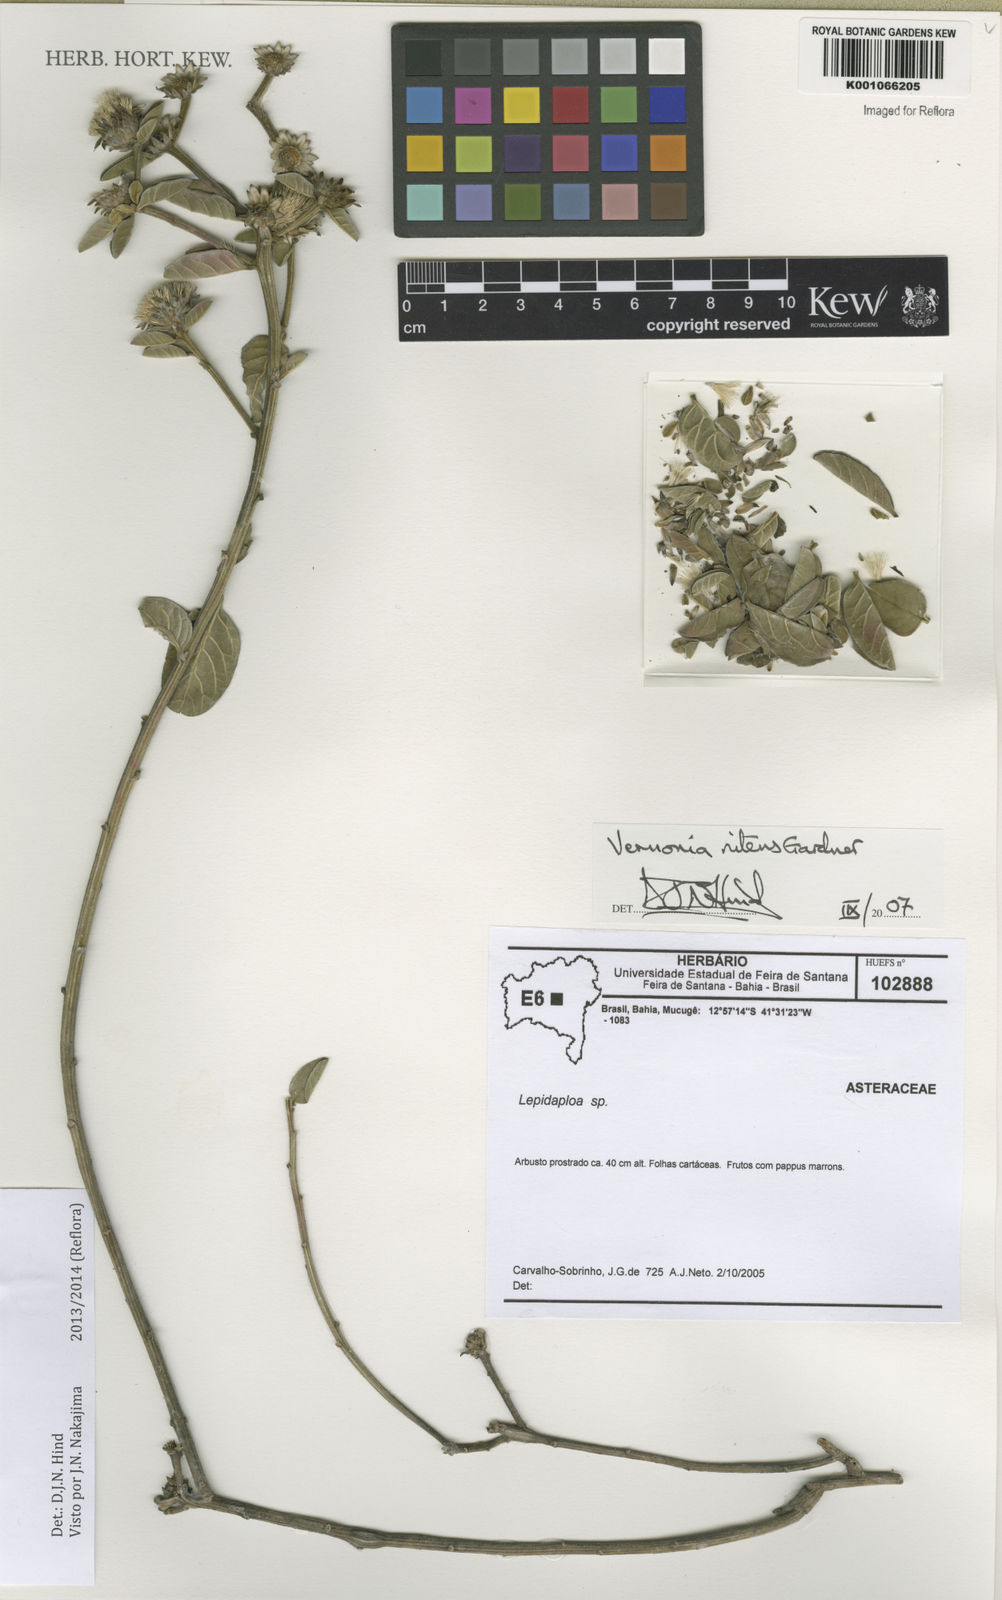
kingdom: Plantae
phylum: Tracheophyta
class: Magnoliopsida
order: Asterales
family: Asteraceae
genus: Lepidaploa
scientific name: Lepidaploa nitens
